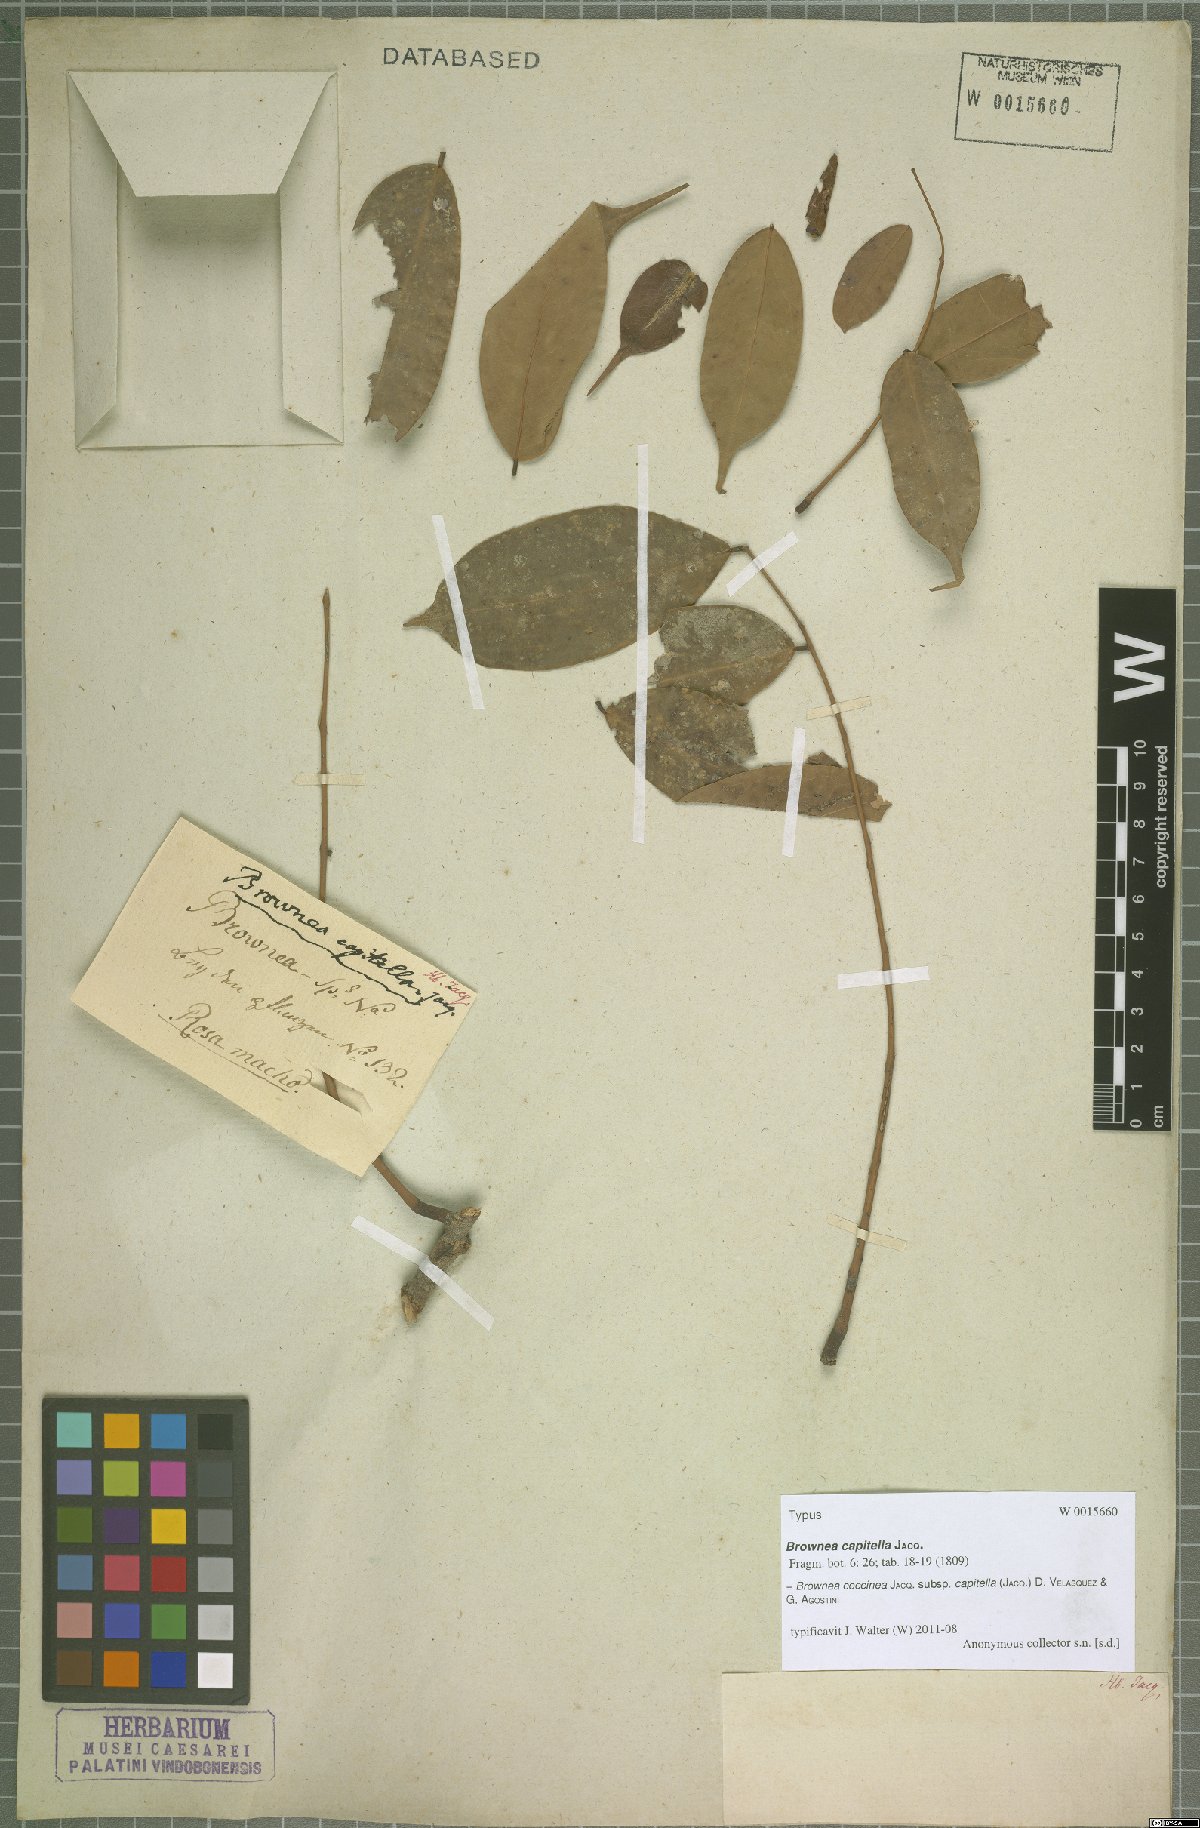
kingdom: Plantae
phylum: Tracheophyta
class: Magnoliopsida
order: Fabales
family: Fabaceae
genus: Brownea
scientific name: Brownea coccinea
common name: Scarlet flame-bean
